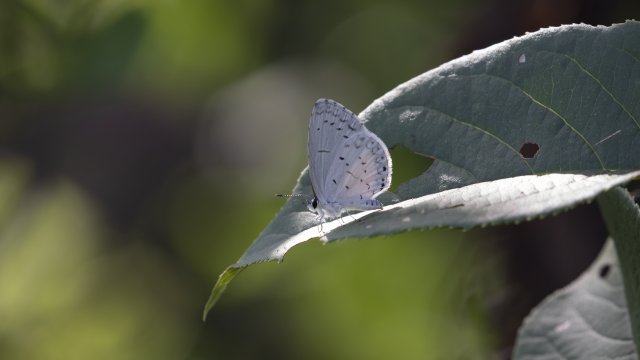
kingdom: Animalia
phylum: Arthropoda
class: Insecta
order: Lepidoptera
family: Lycaenidae
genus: Cyaniris
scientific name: Cyaniris neglecta
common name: Summer Azure
